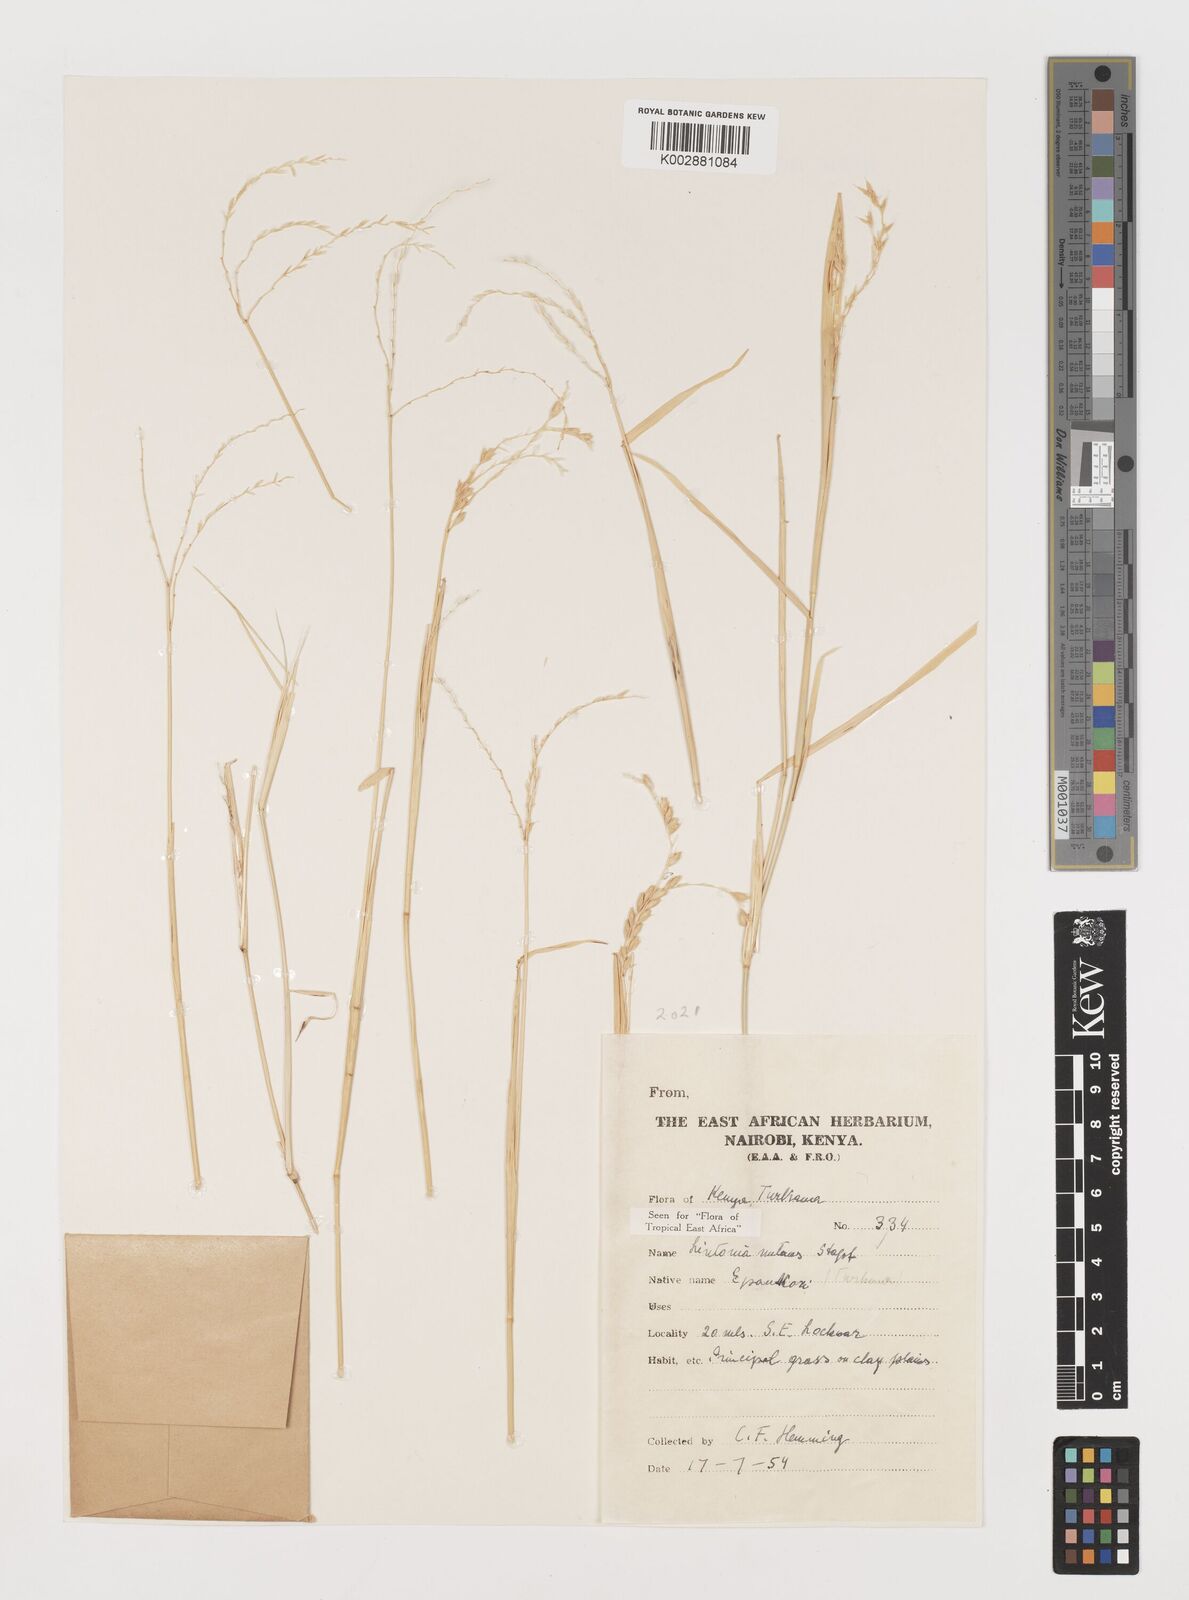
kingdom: Plantae
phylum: Tracheophyta
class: Liliopsida
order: Poales
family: Poaceae
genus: Chloris
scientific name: Chloris nutans
